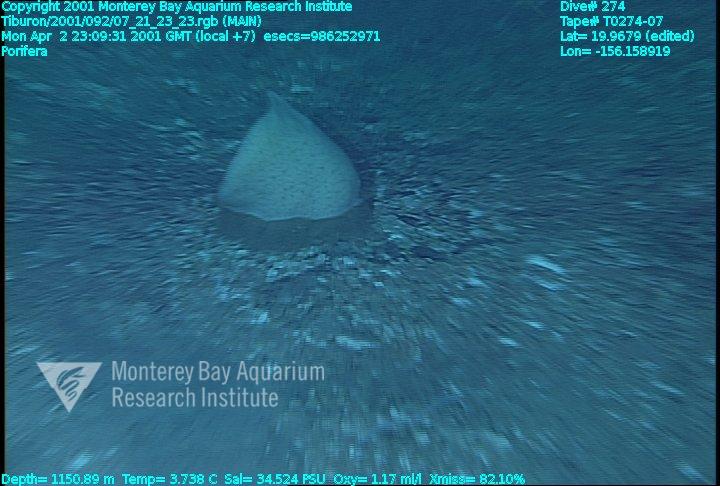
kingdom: Animalia
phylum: Porifera
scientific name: Porifera
